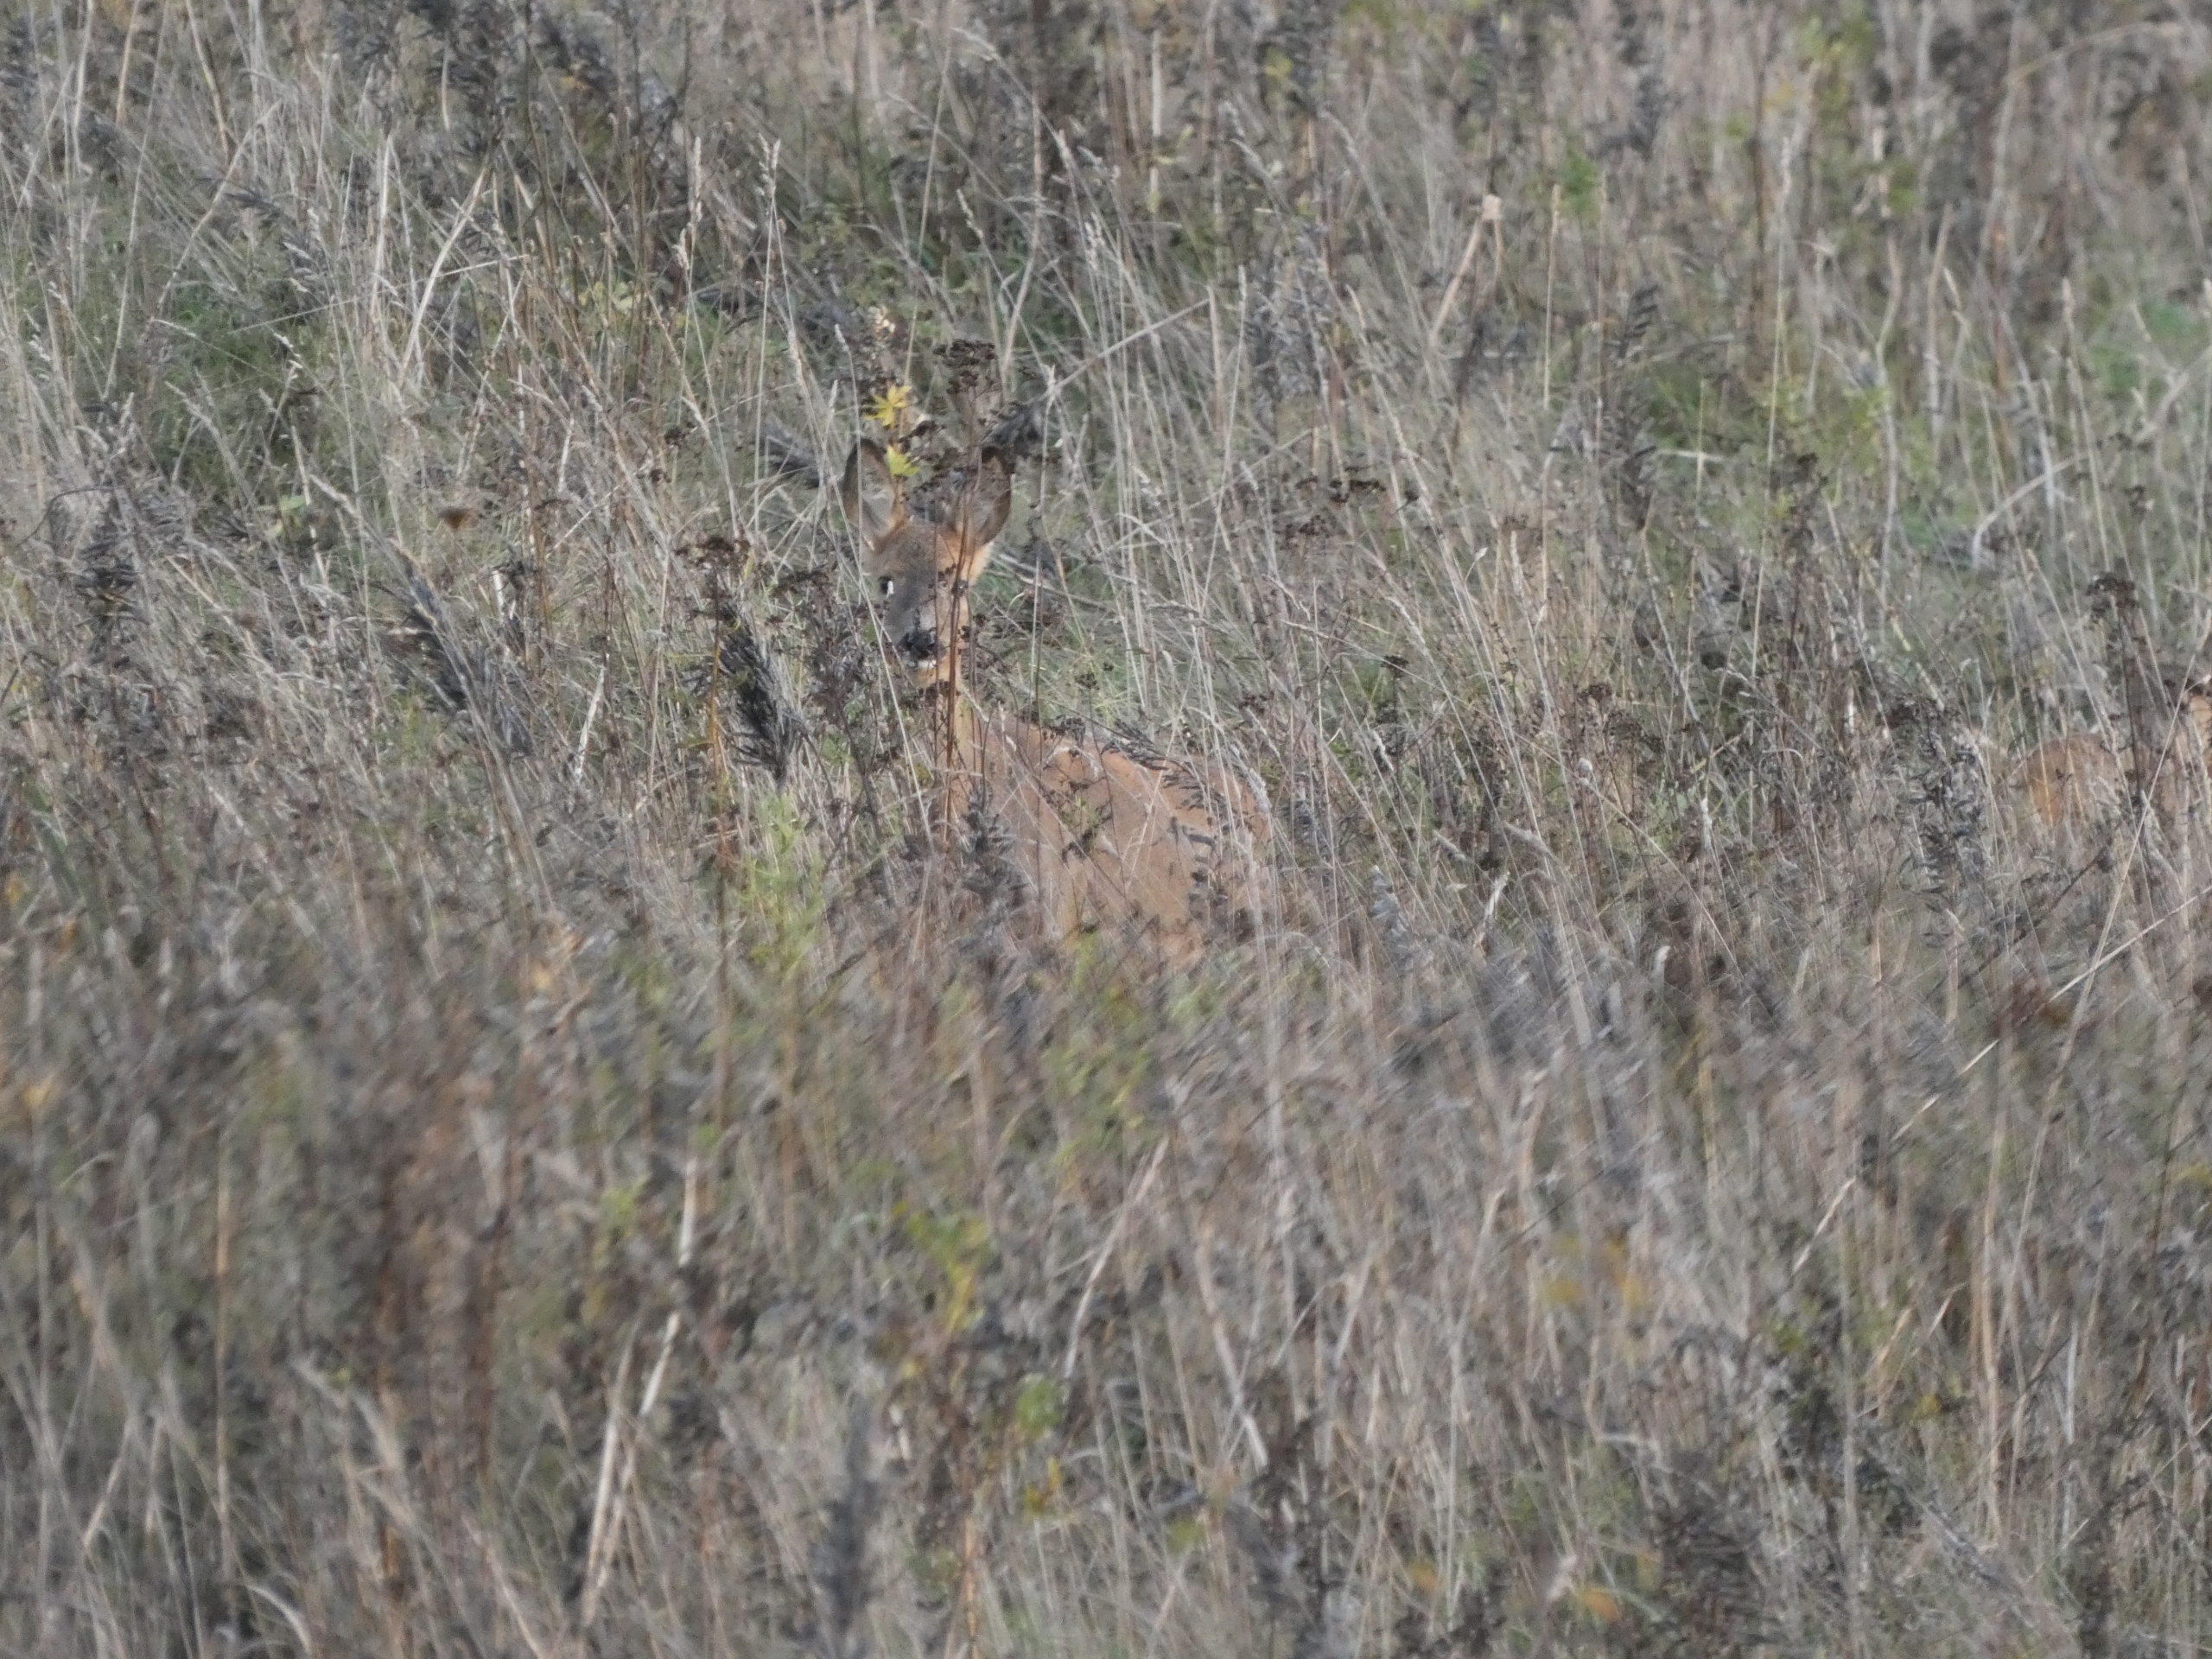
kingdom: Animalia
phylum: Chordata
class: Mammalia
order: Artiodactyla
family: Cervidae
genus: Capreolus
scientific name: Capreolus capreolus
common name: Rådyr
